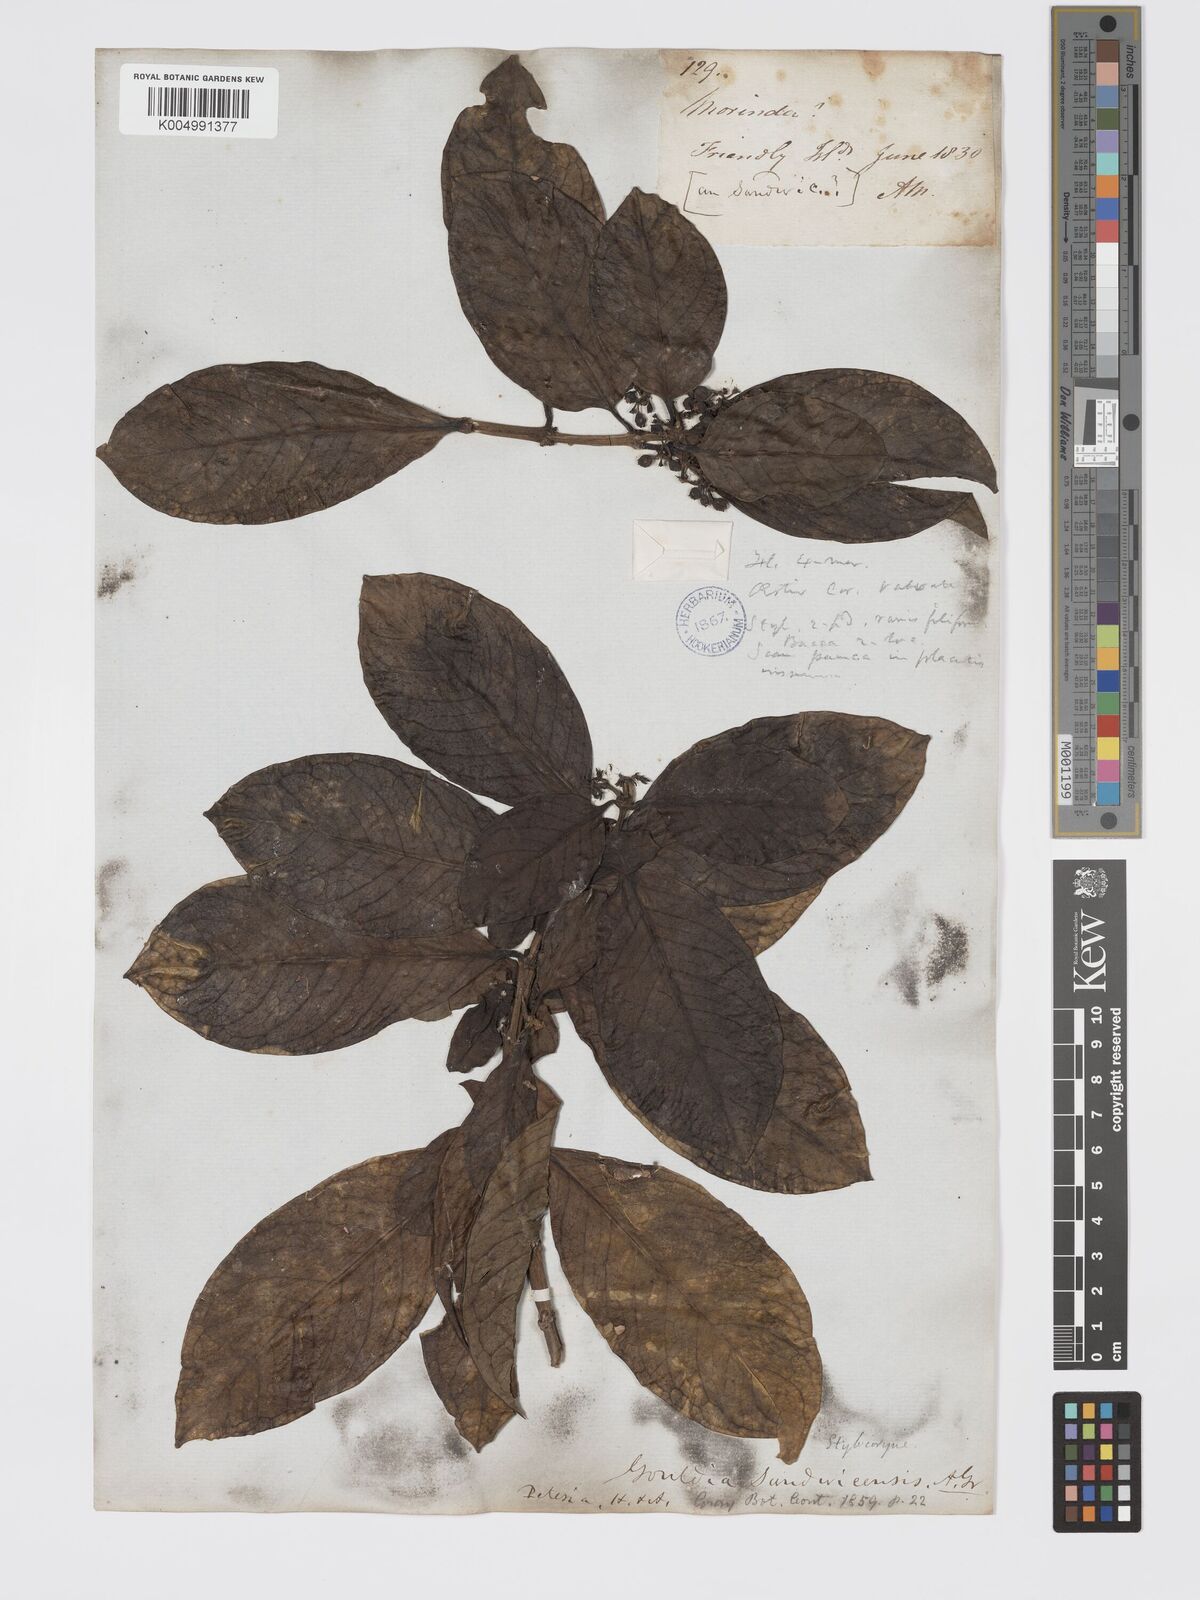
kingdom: Plantae
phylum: Tracheophyta
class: Magnoliopsida
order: Gentianales
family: Rubiaceae
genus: Kadua
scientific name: Kadua coriacea
